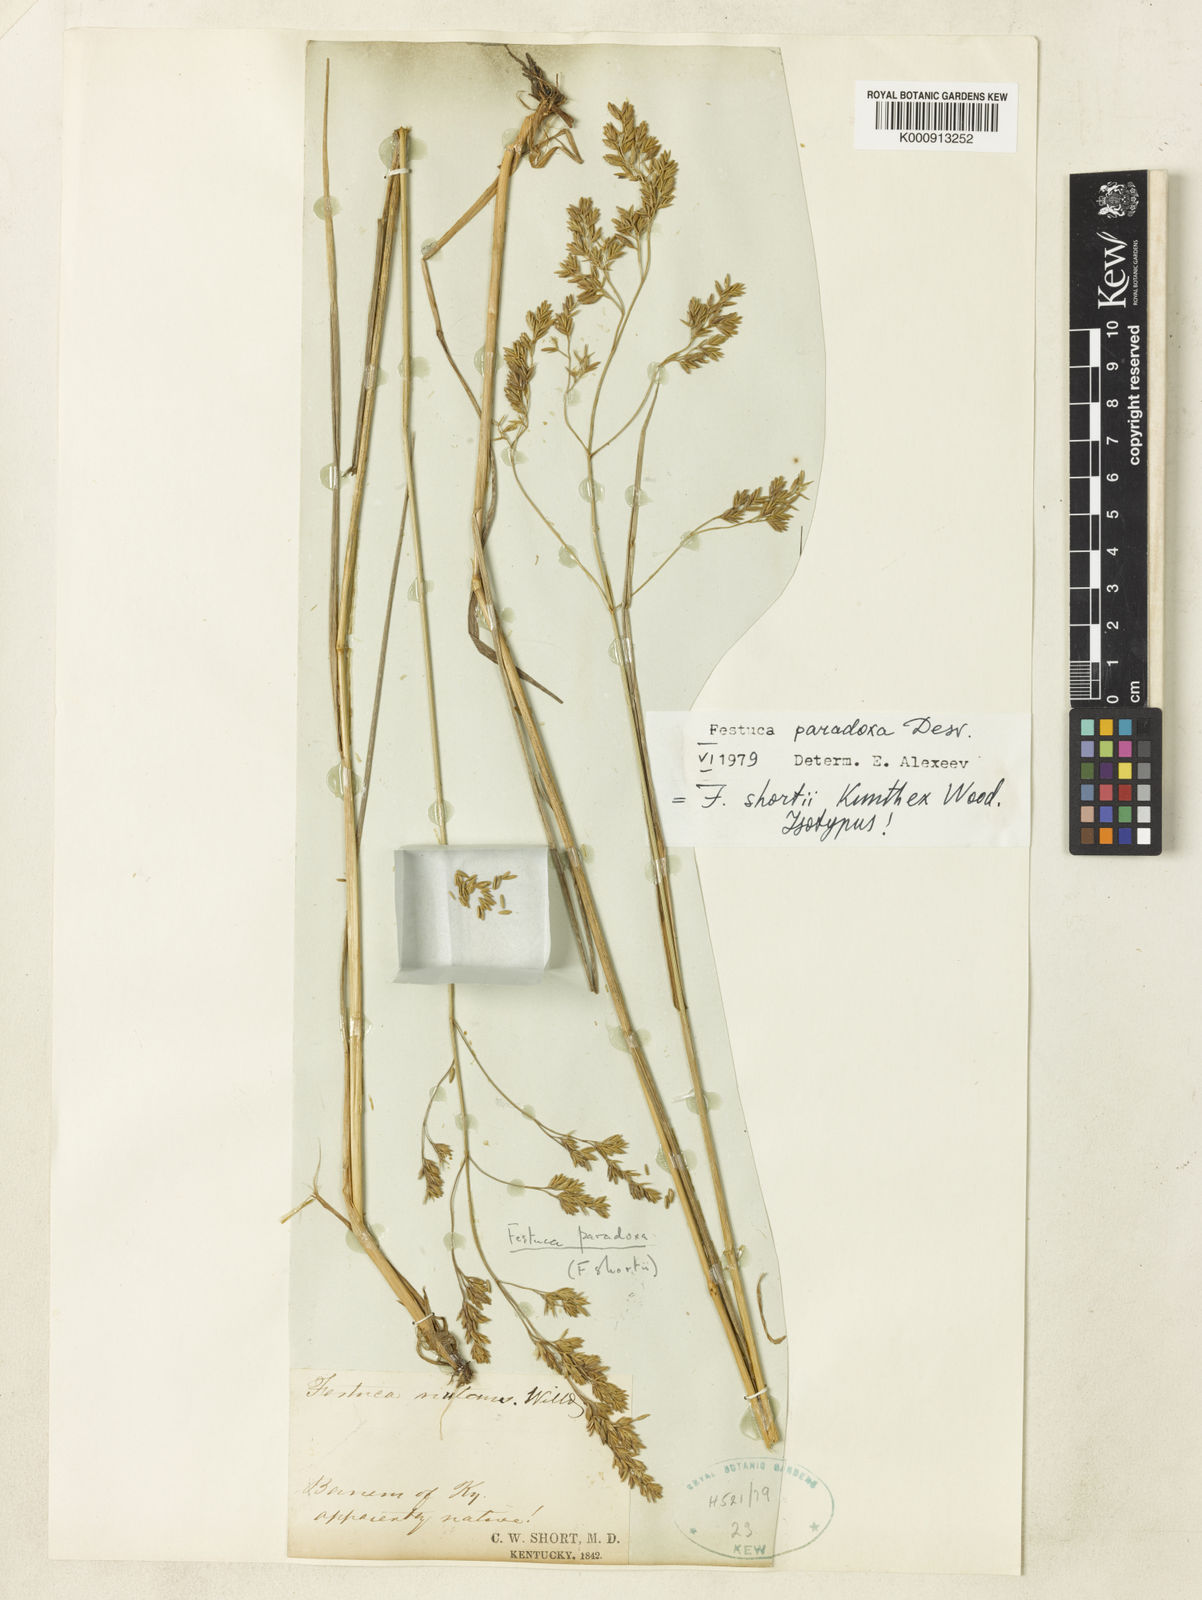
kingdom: Plantae
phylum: Tracheophyta
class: Liliopsida
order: Poales
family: Poaceae
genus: Festuca
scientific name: Festuca paradoxa
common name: Cluster fescue
